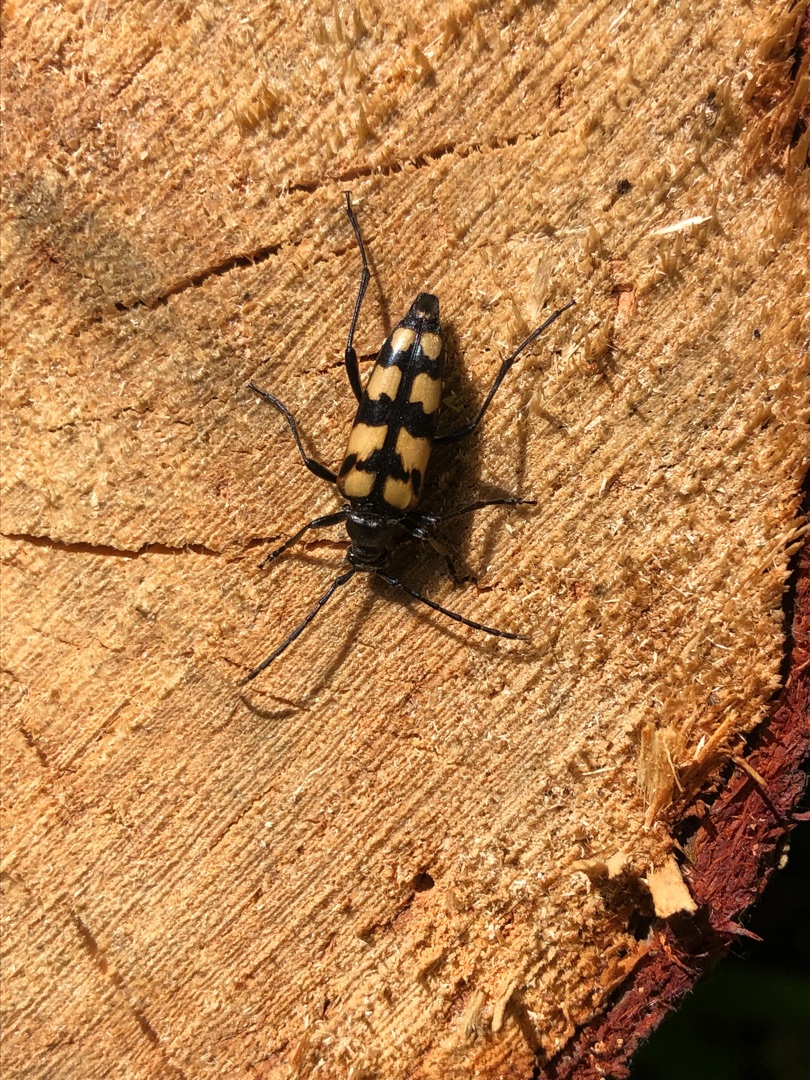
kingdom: Animalia
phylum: Arthropoda
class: Insecta
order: Coleoptera
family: Cerambycidae
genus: Leptura
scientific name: Leptura quadrifasciata
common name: Firebåndet blomsterbuk
